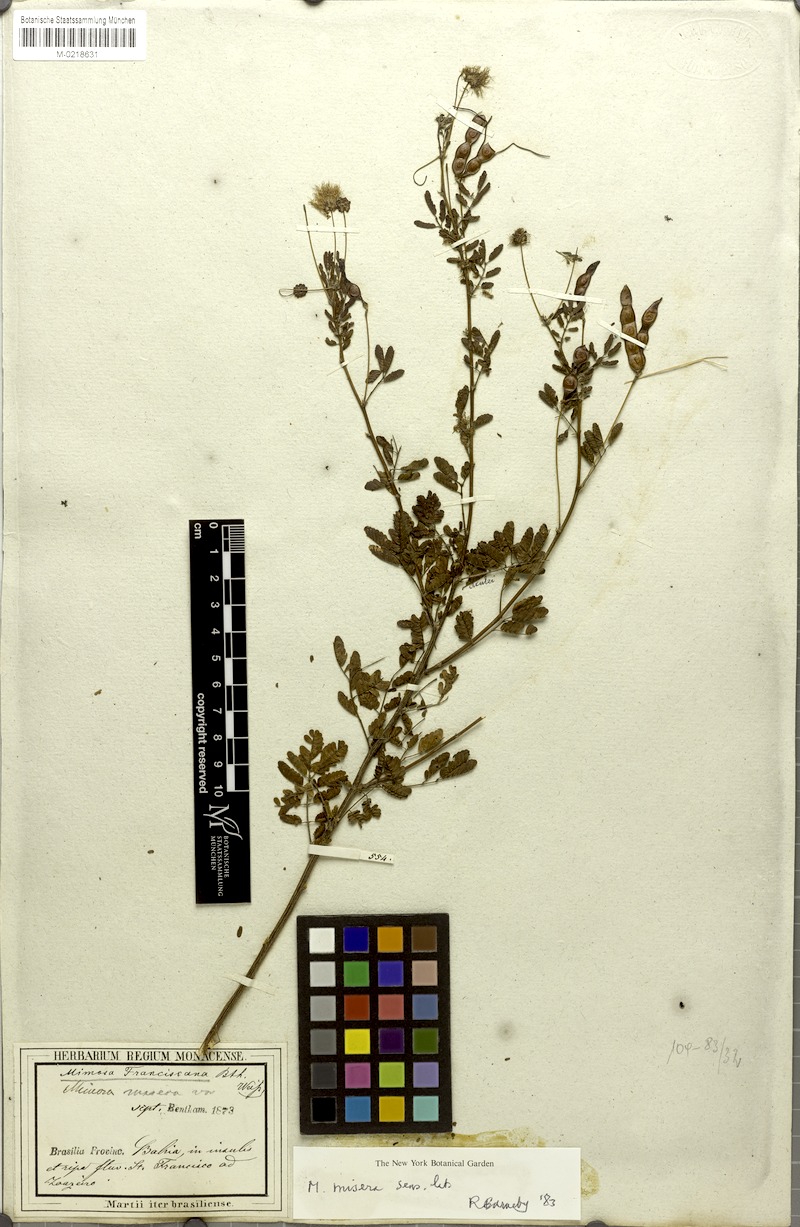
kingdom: Plantae
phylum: Tracheophyta
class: Magnoliopsida
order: Fabales
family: Fabaceae
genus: Mimosa
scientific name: Mimosa misera
